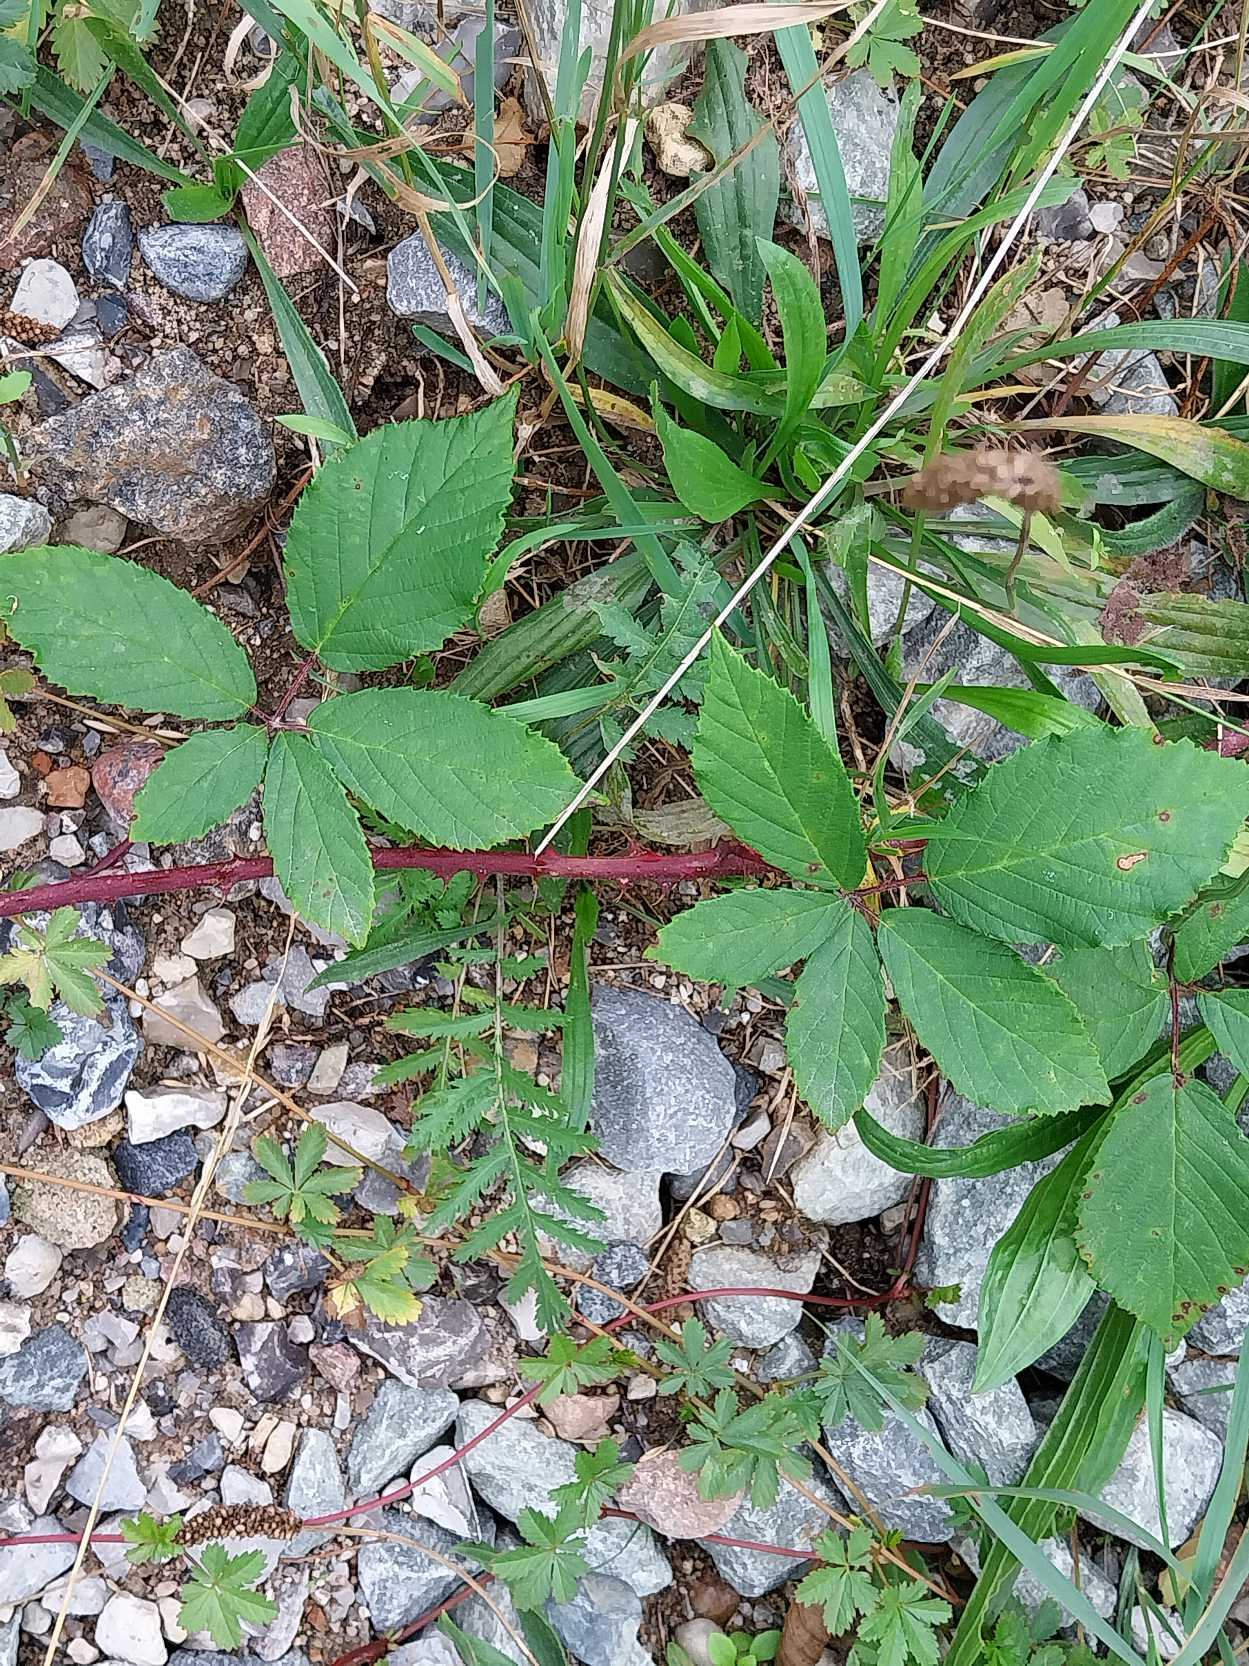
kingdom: Plantae
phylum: Tracheophyta
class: Magnoliopsida
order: Rosales
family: Rosaceae
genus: Rubus
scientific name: Rubus radula
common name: Rasperu brombær
